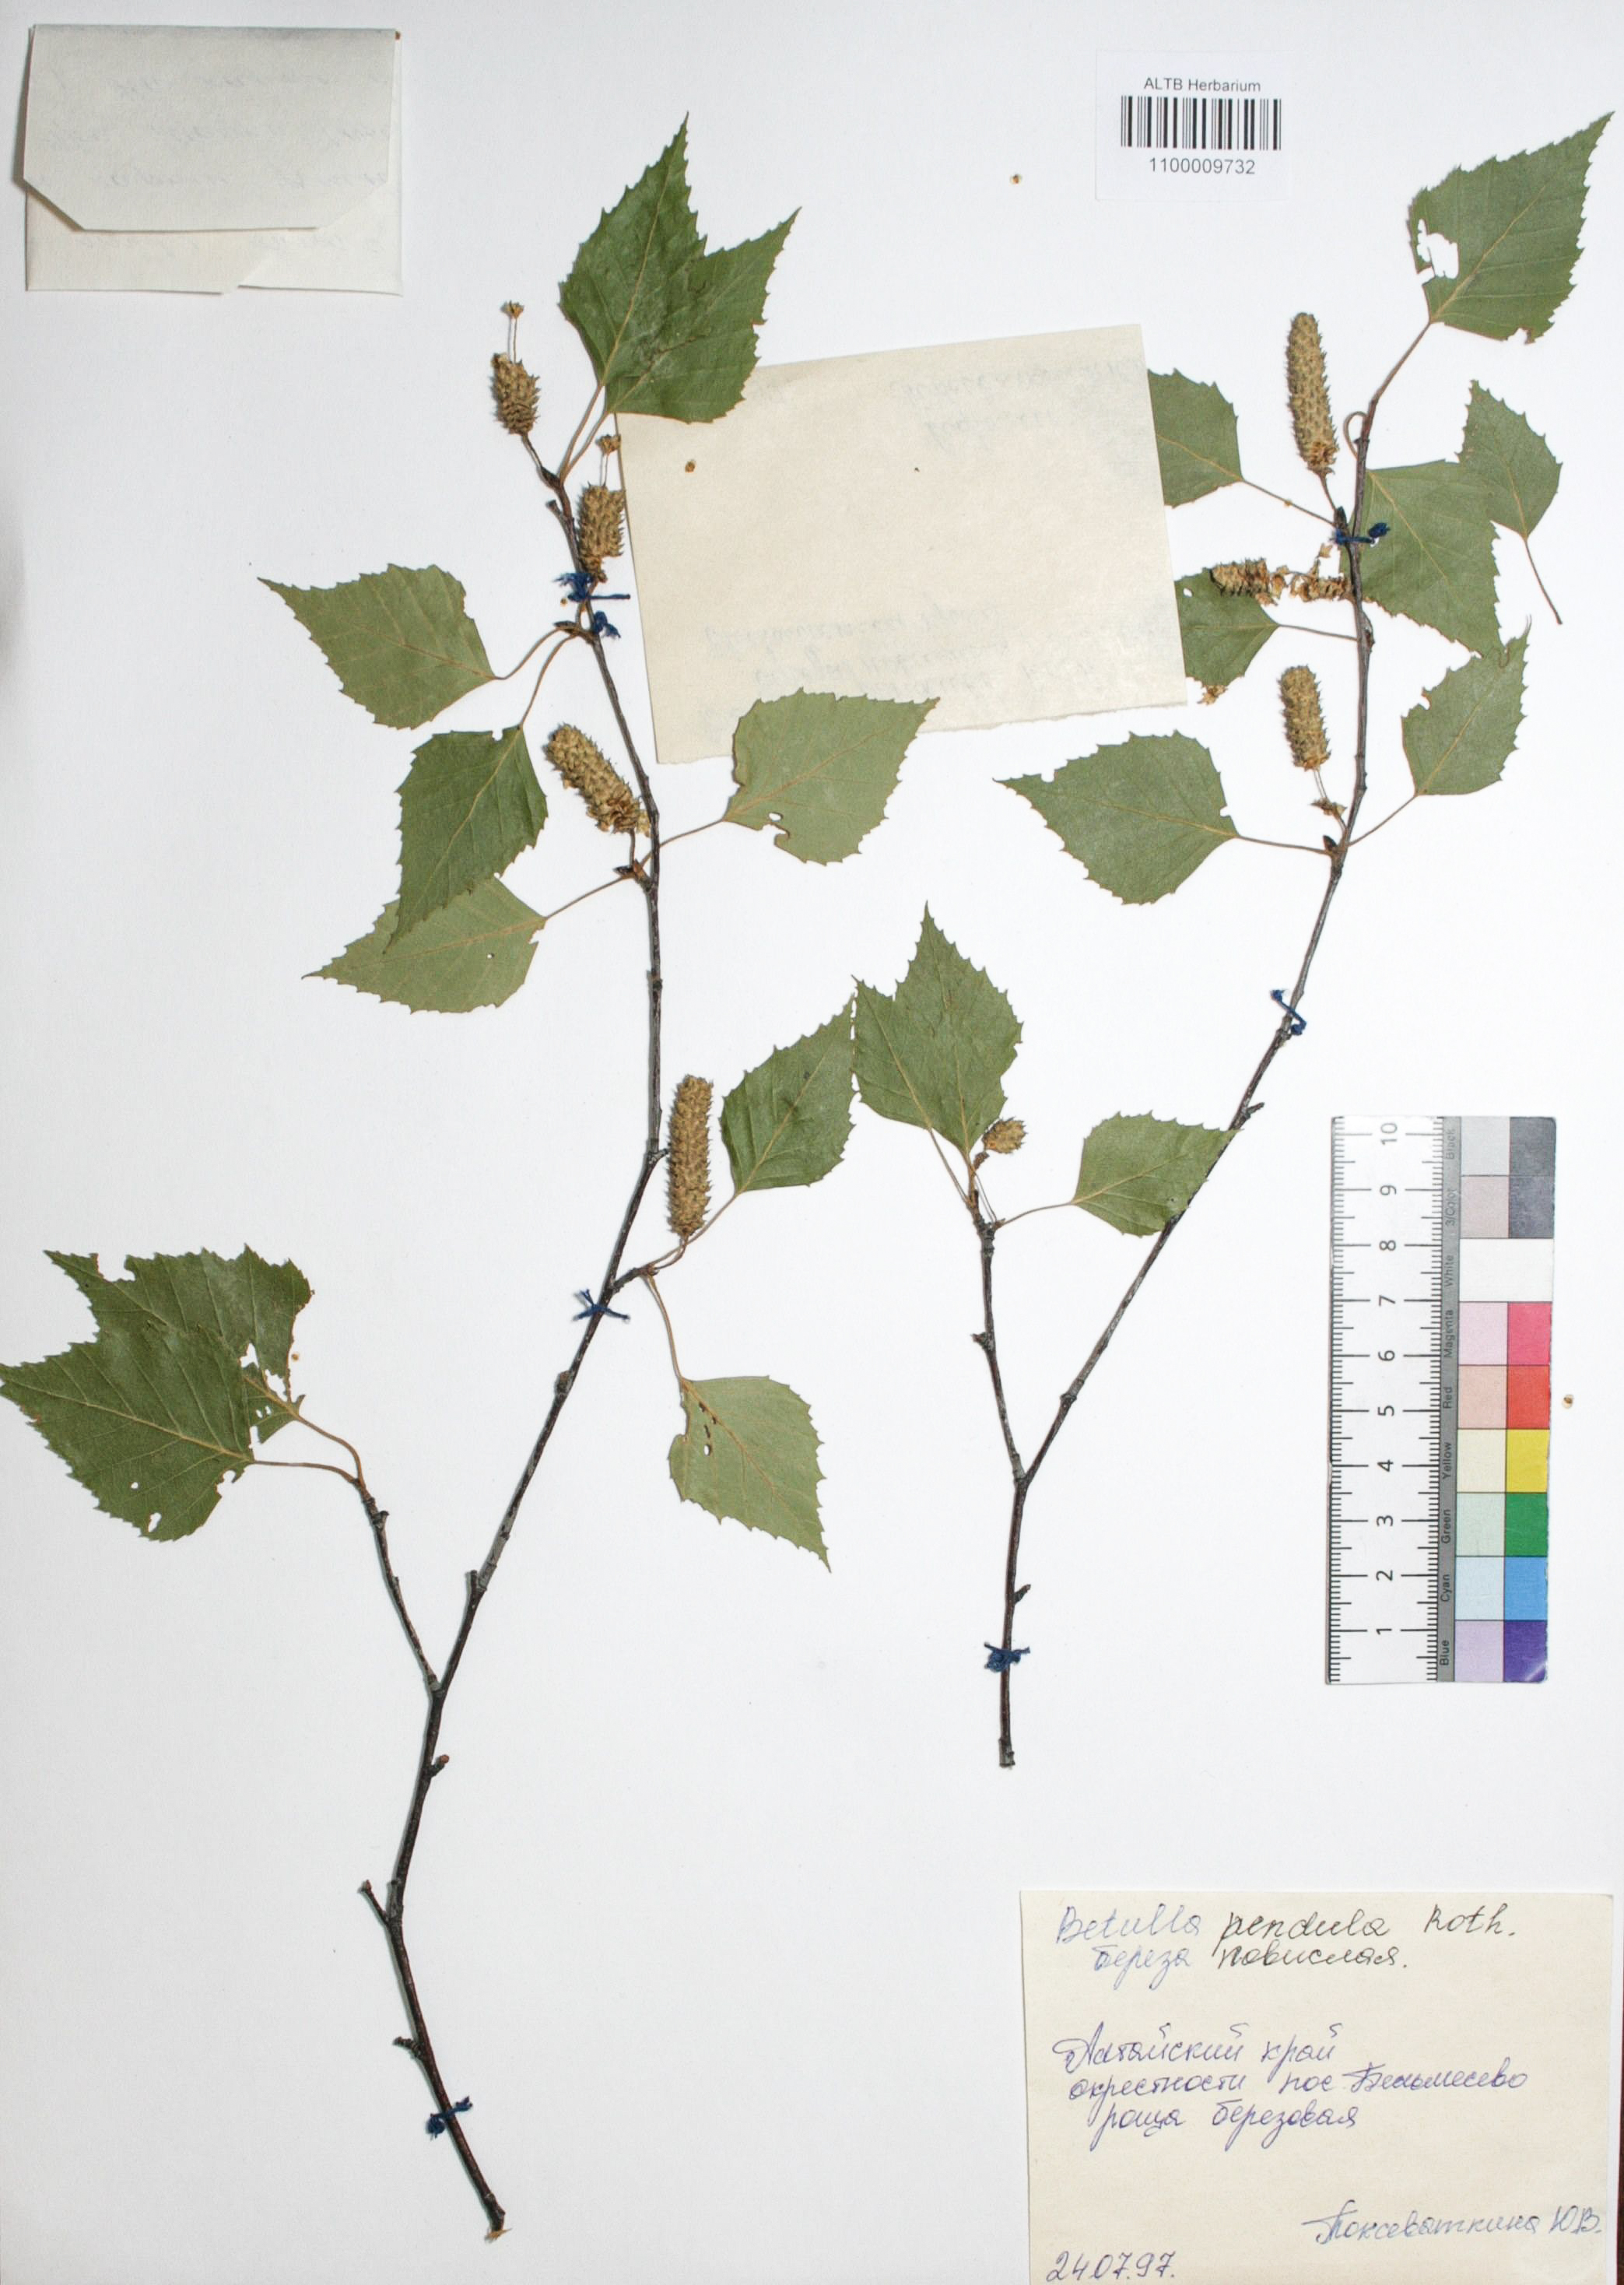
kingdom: Plantae
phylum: Tracheophyta
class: Magnoliopsida
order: Fagales
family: Betulaceae
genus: Betula
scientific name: Betula pendula
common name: Silver birch
